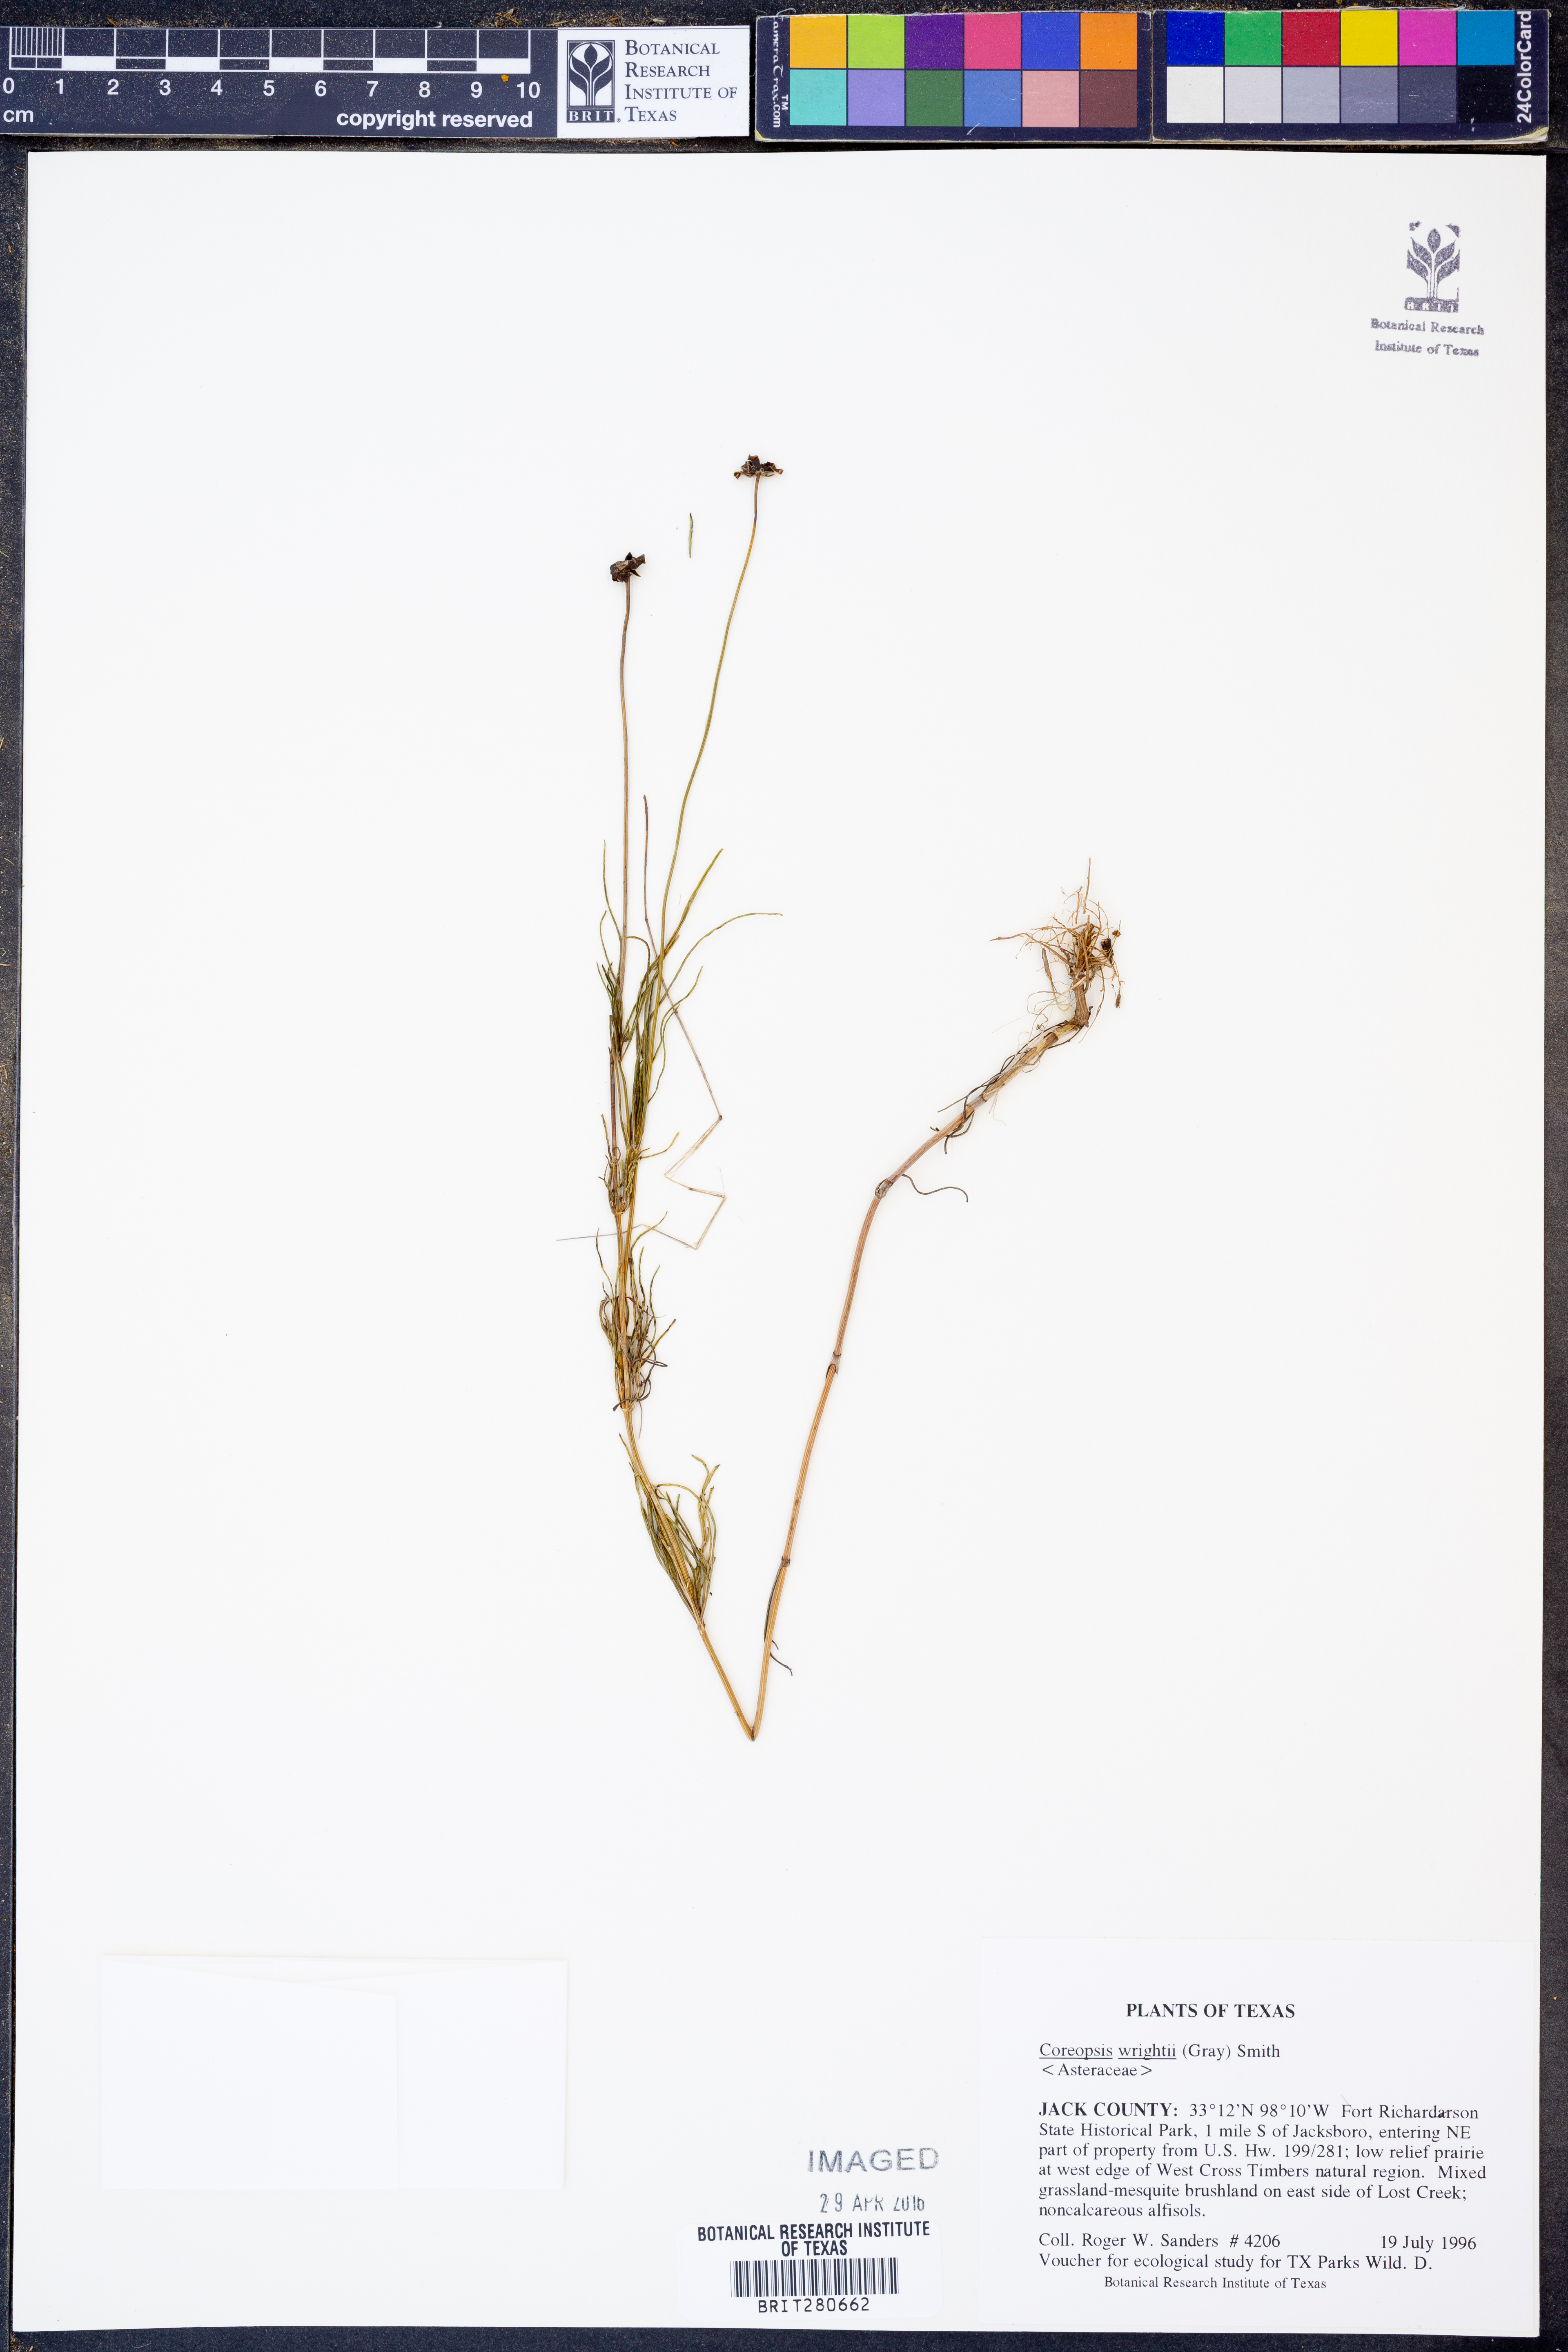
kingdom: Plantae
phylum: Tracheophyta
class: Magnoliopsida
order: Asterales
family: Asteraceae
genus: Coreopsis
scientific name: Coreopsis basalis
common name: Golden-mane coreopsis
